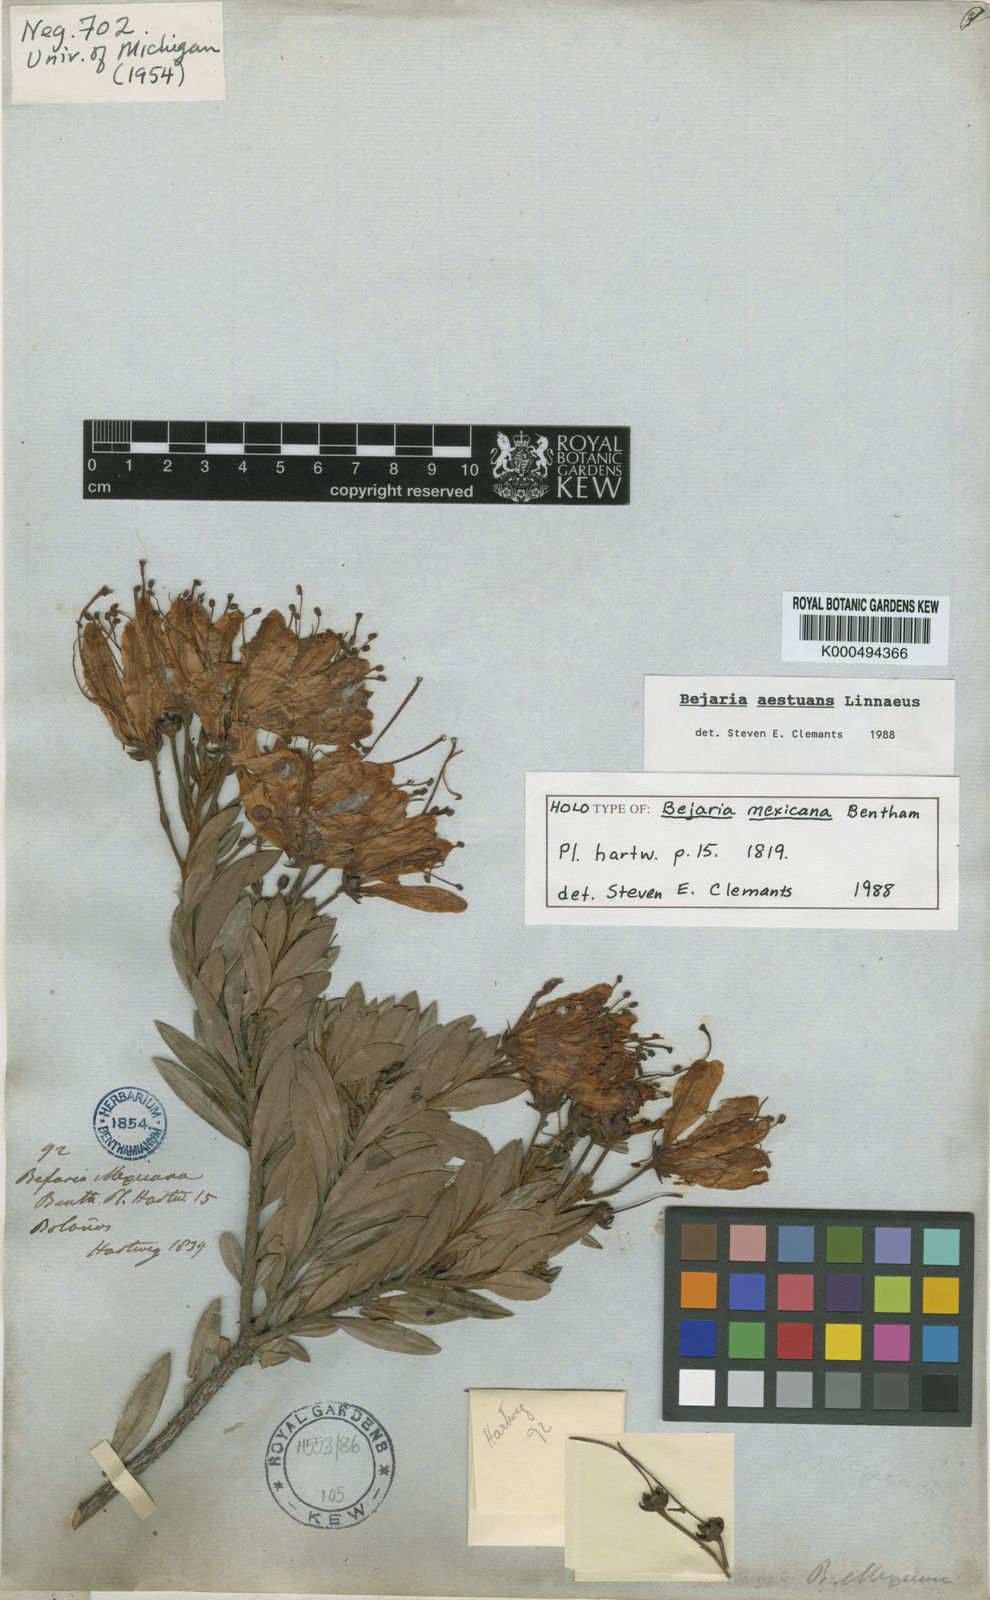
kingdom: Plantae
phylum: Tracheophyta
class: Magnoliopsida
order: Ericales
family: Ericaceae
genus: Bejaria
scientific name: Bejaria
